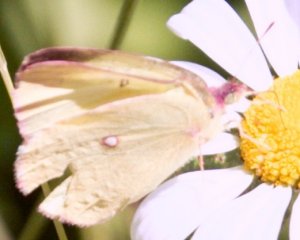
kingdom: Animalia
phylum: Arthropoda
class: Insecta
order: Lepidoptera
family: Pieridae
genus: Colias
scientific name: Colias interior
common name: Pink-edged Sulphur
